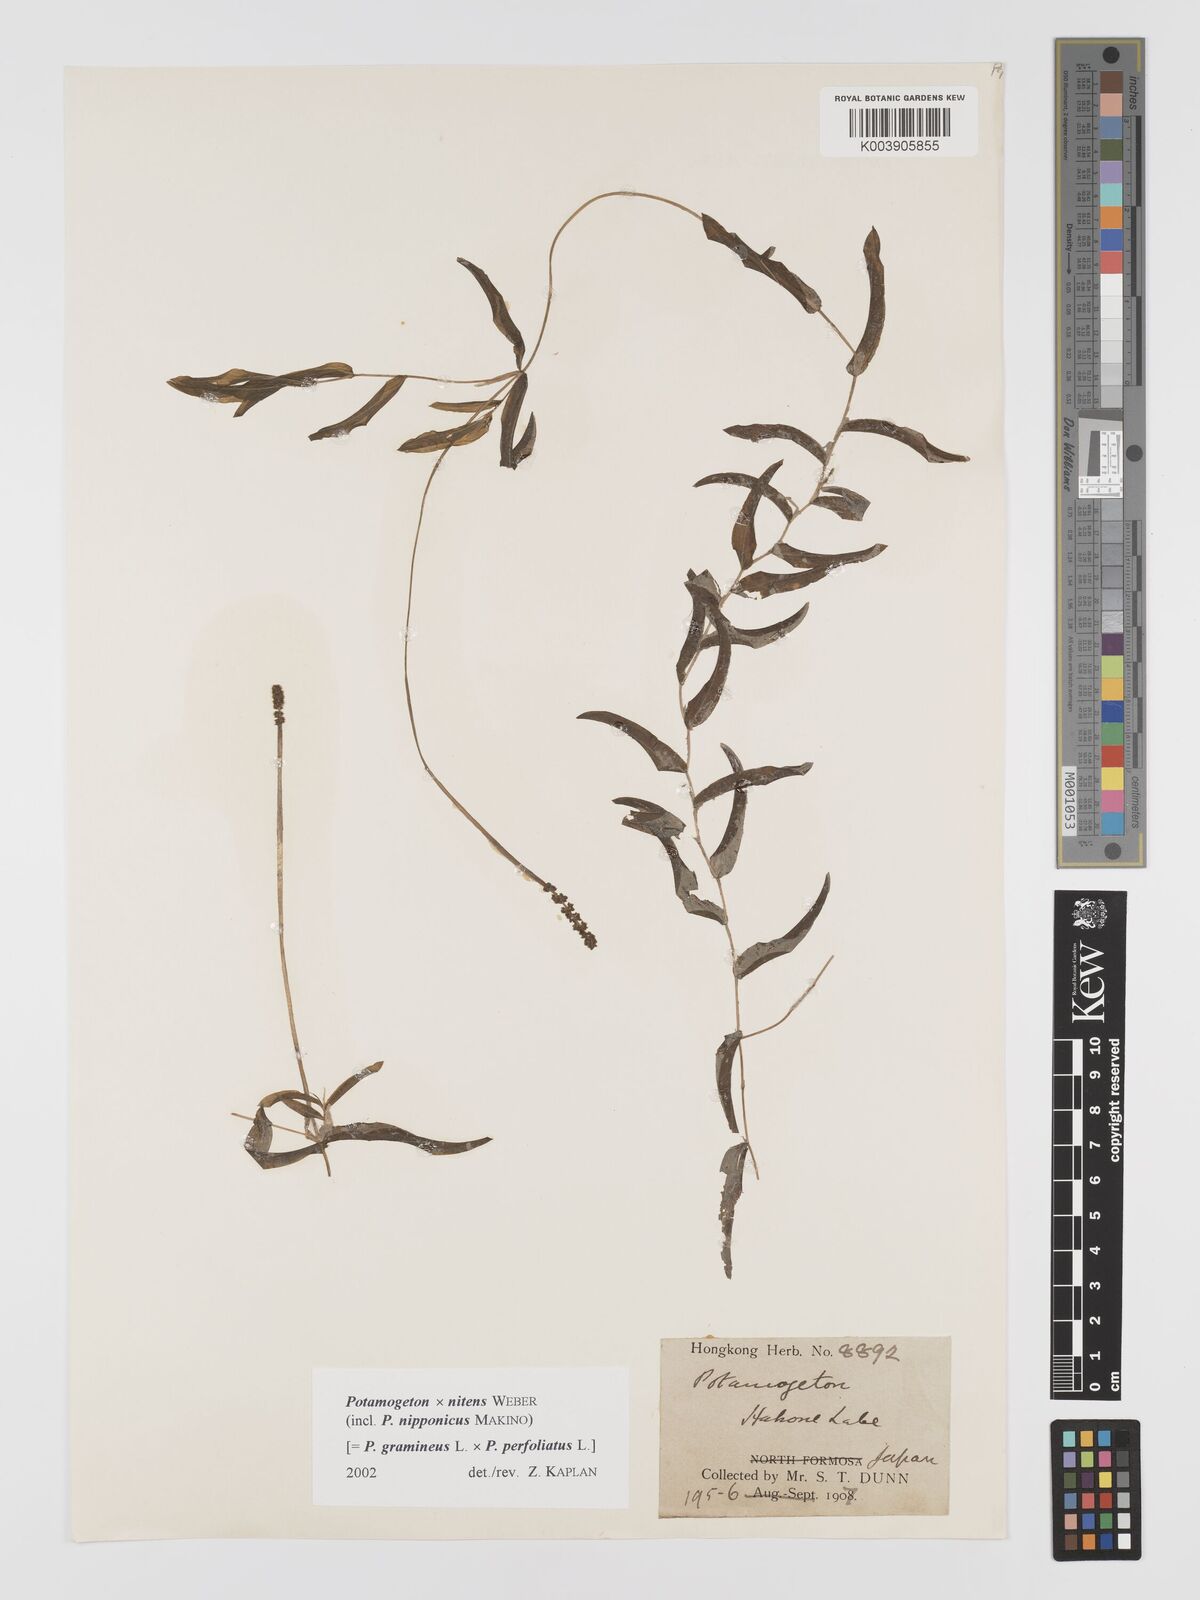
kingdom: Plantae
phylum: Tracheophyta
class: Liliopsida
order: Alismatales
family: Potamogetonaceae
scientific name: Potamogetonaceae
